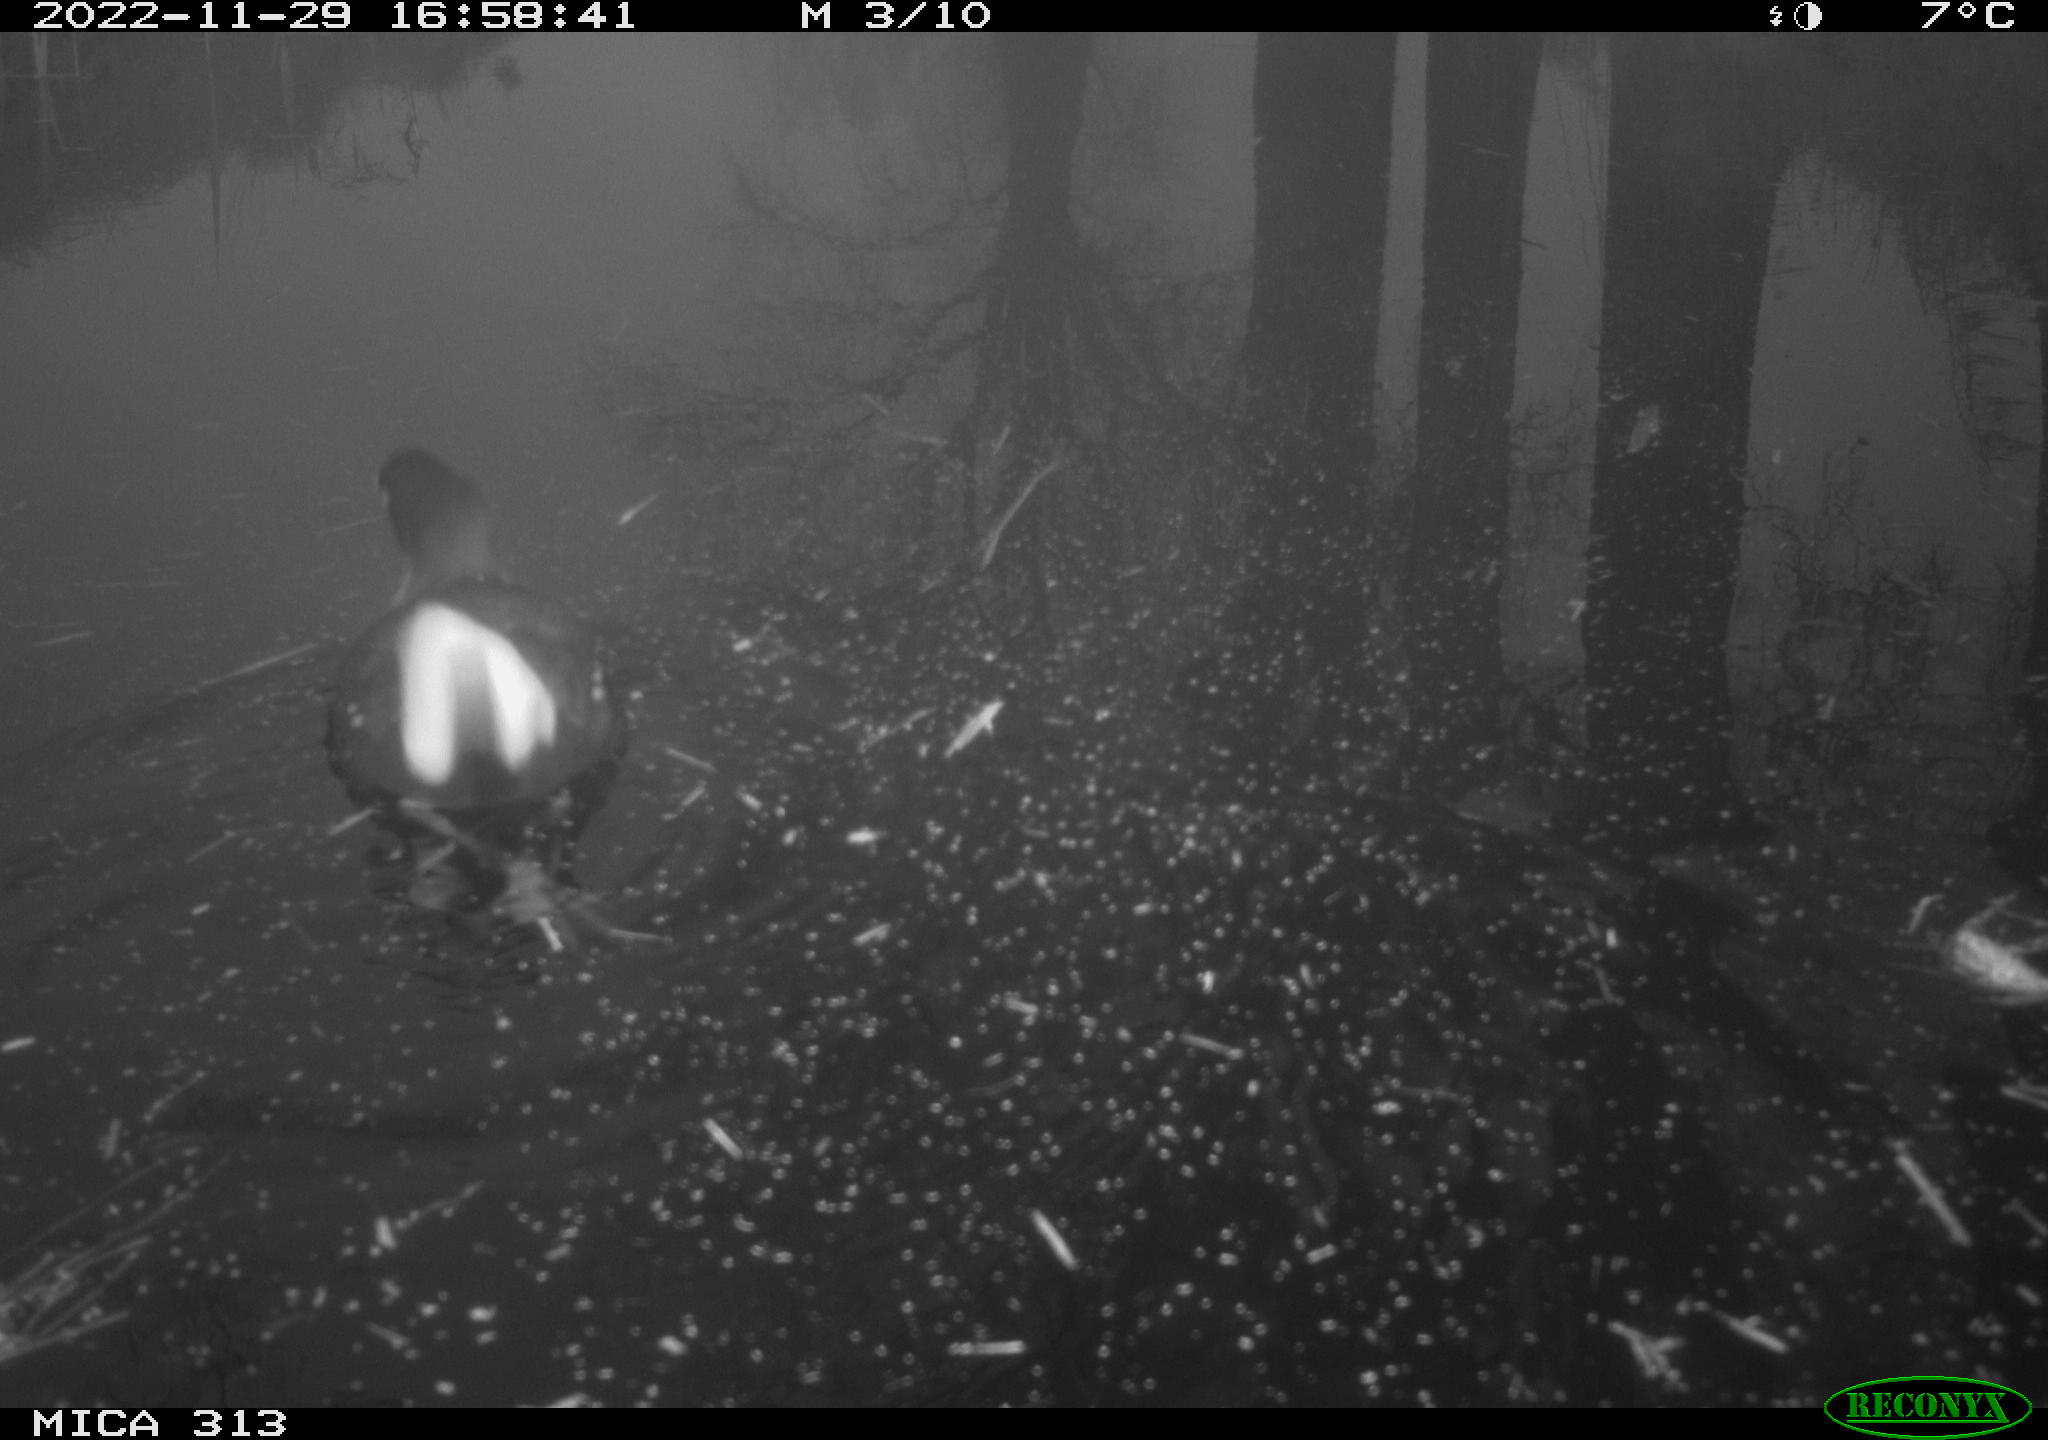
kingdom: Animalia
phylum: Chordata
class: Aves
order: Gruiformes
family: Rallidae
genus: Gallinula
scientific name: Gallinula chloropus
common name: Common moorhen
